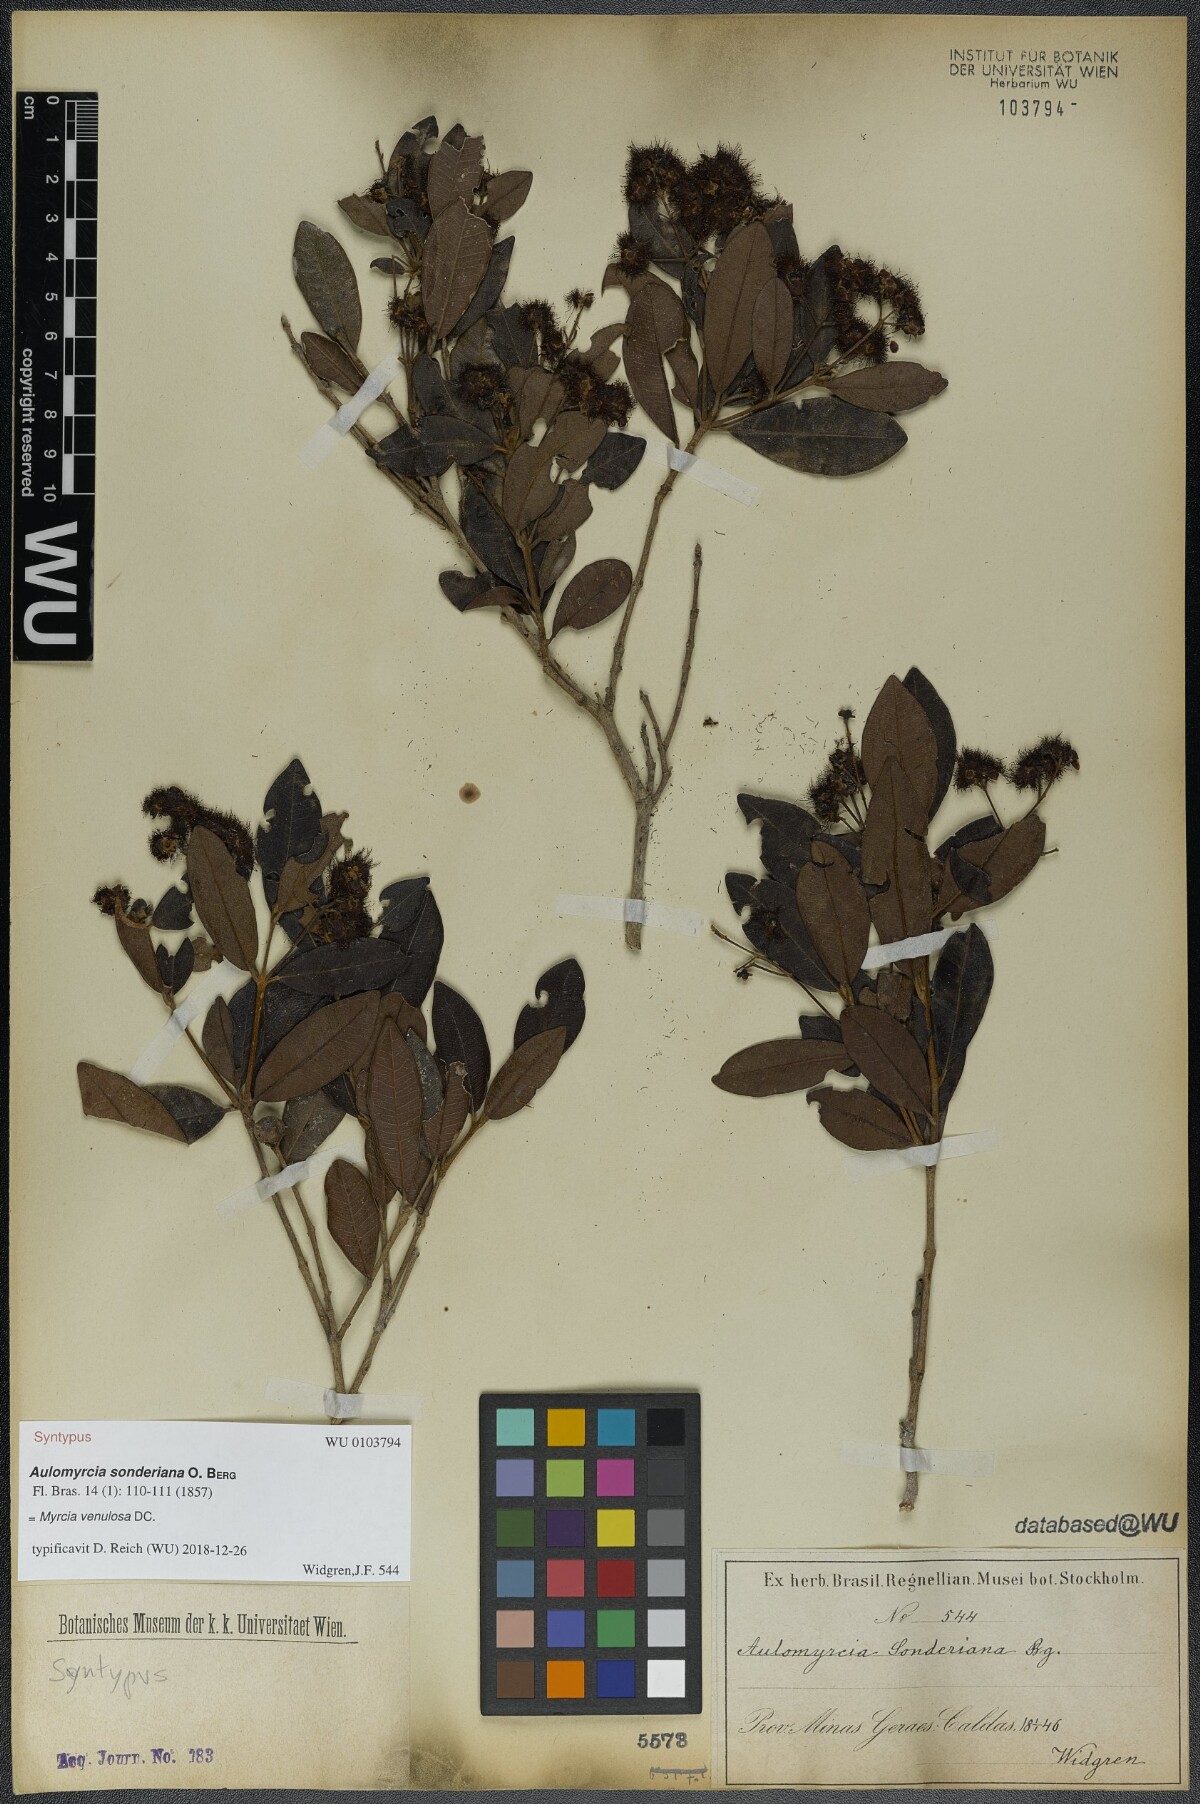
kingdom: Plantae
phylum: Tracheophyta
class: Magnoliopsida
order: Myrtales
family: Myrtaceae
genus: Myrcia
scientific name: Myrcia venulosa
